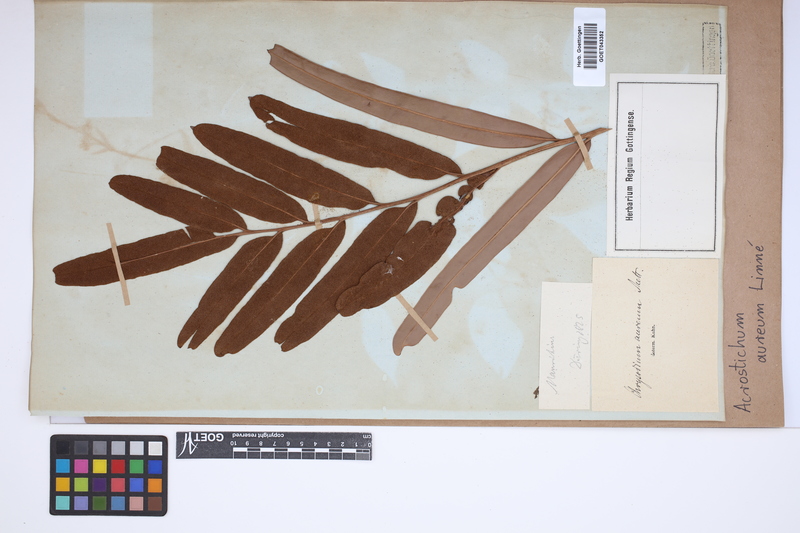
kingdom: Plantae
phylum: Tracheophyta
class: Polypodiopsida
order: Polypodiales
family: Pteridaceae
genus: Acrostichum
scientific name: Acrostichum aureum
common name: Leather fern
